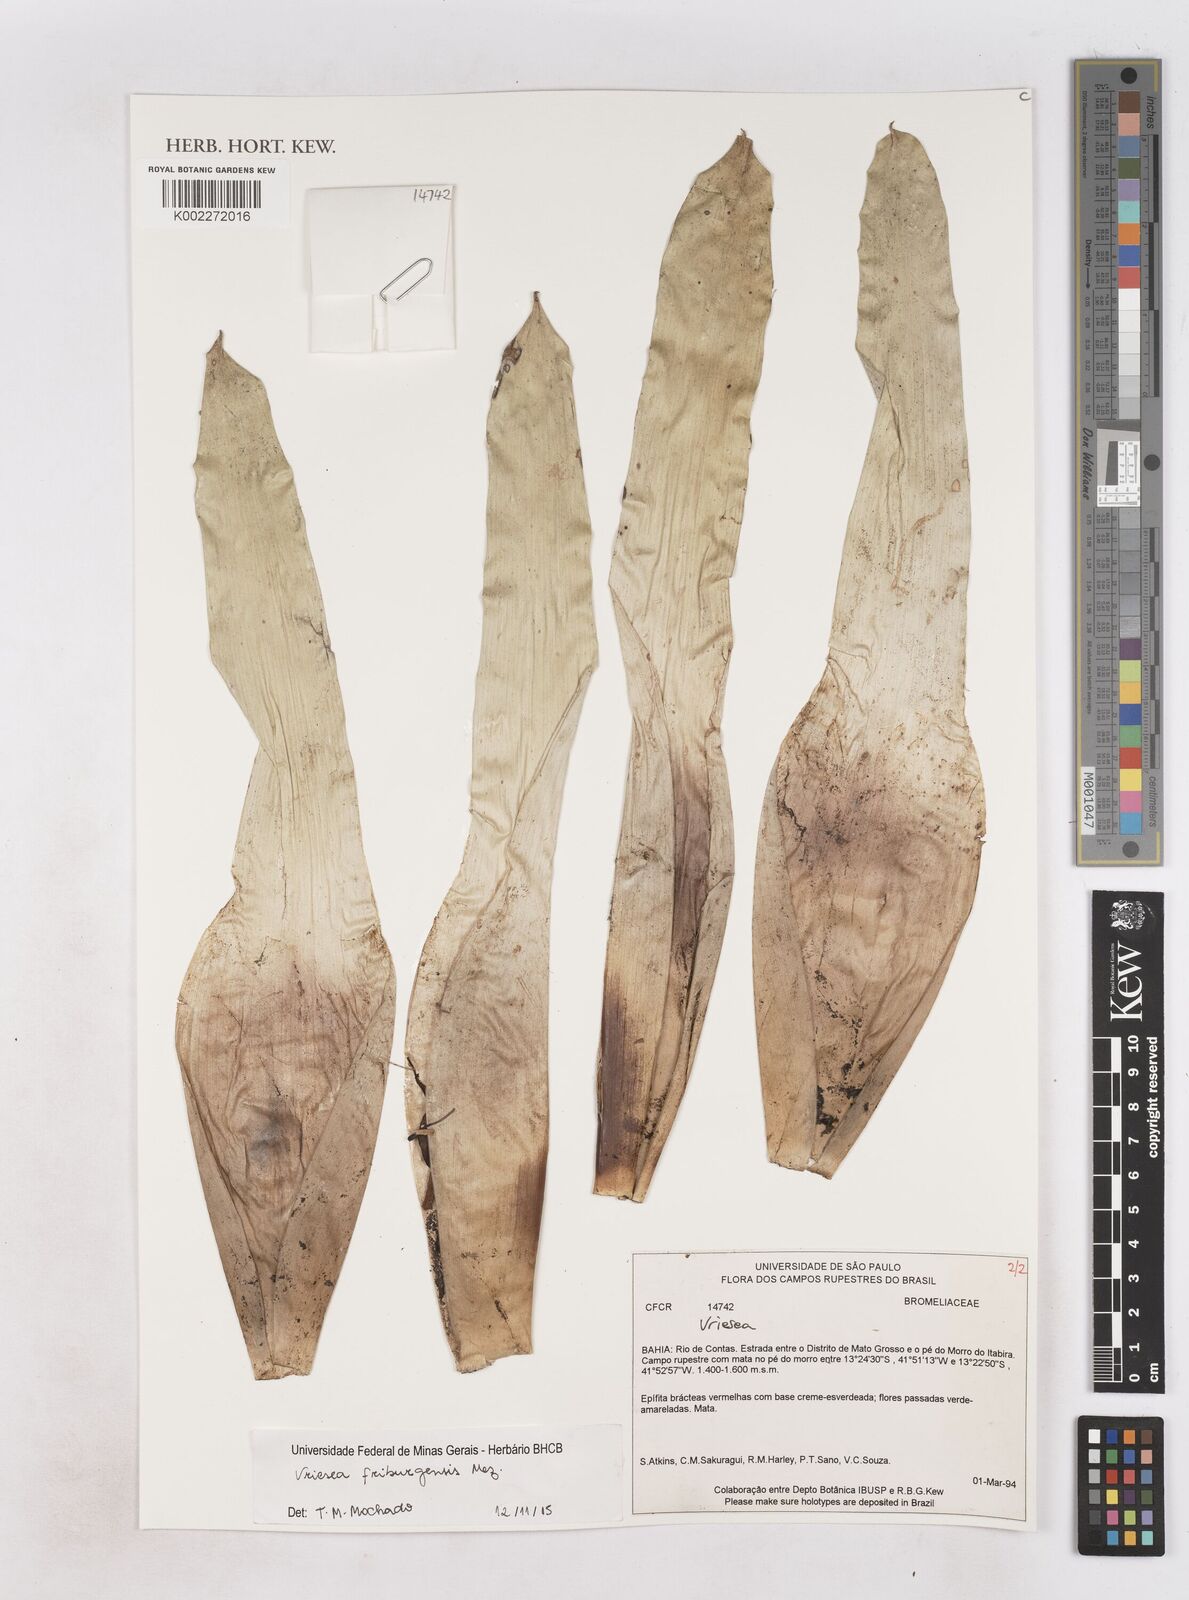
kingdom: Plantae
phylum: Tracheophyta
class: Liliopsida
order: Poales
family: Bromeliaceae
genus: Vriesea
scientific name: Vriesea friburgensis
